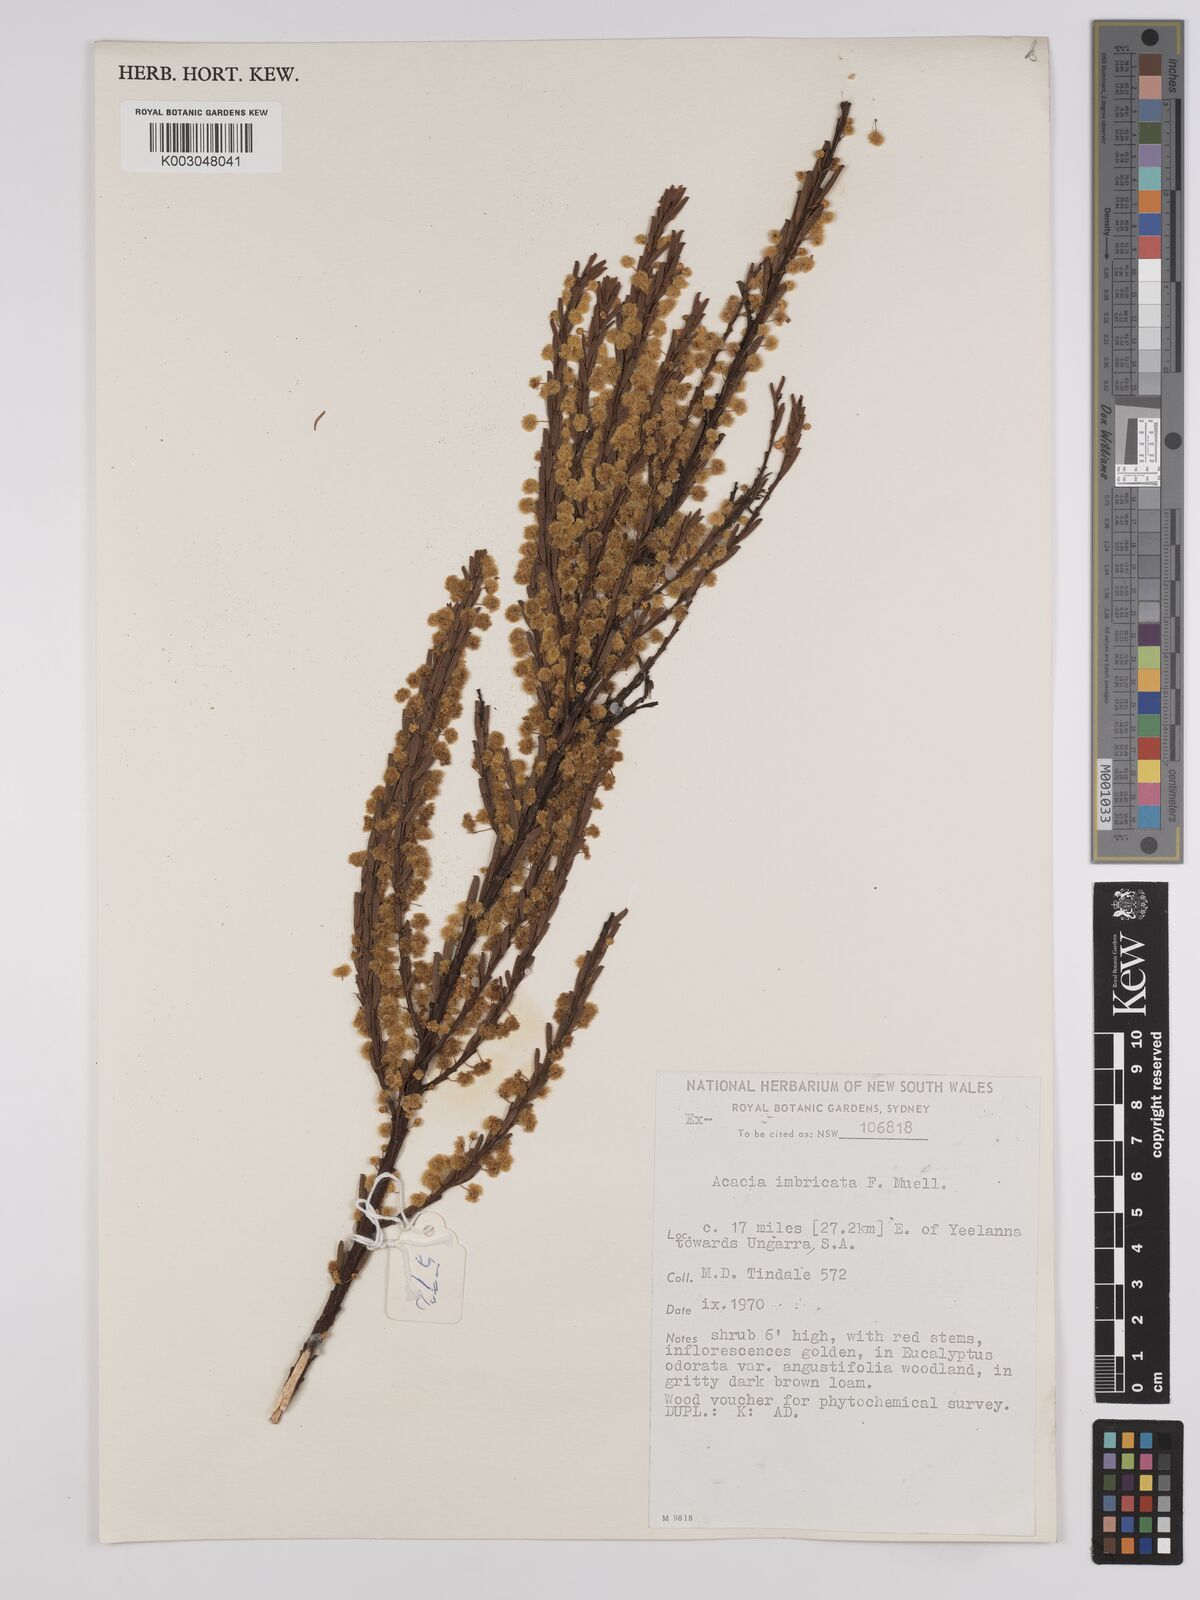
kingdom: Plantae
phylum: Tracheophyta
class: Magnoliopsida
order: Fabales
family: Fabaceae
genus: Acacia
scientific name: Acacia imbricata
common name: Imbricate wattle
